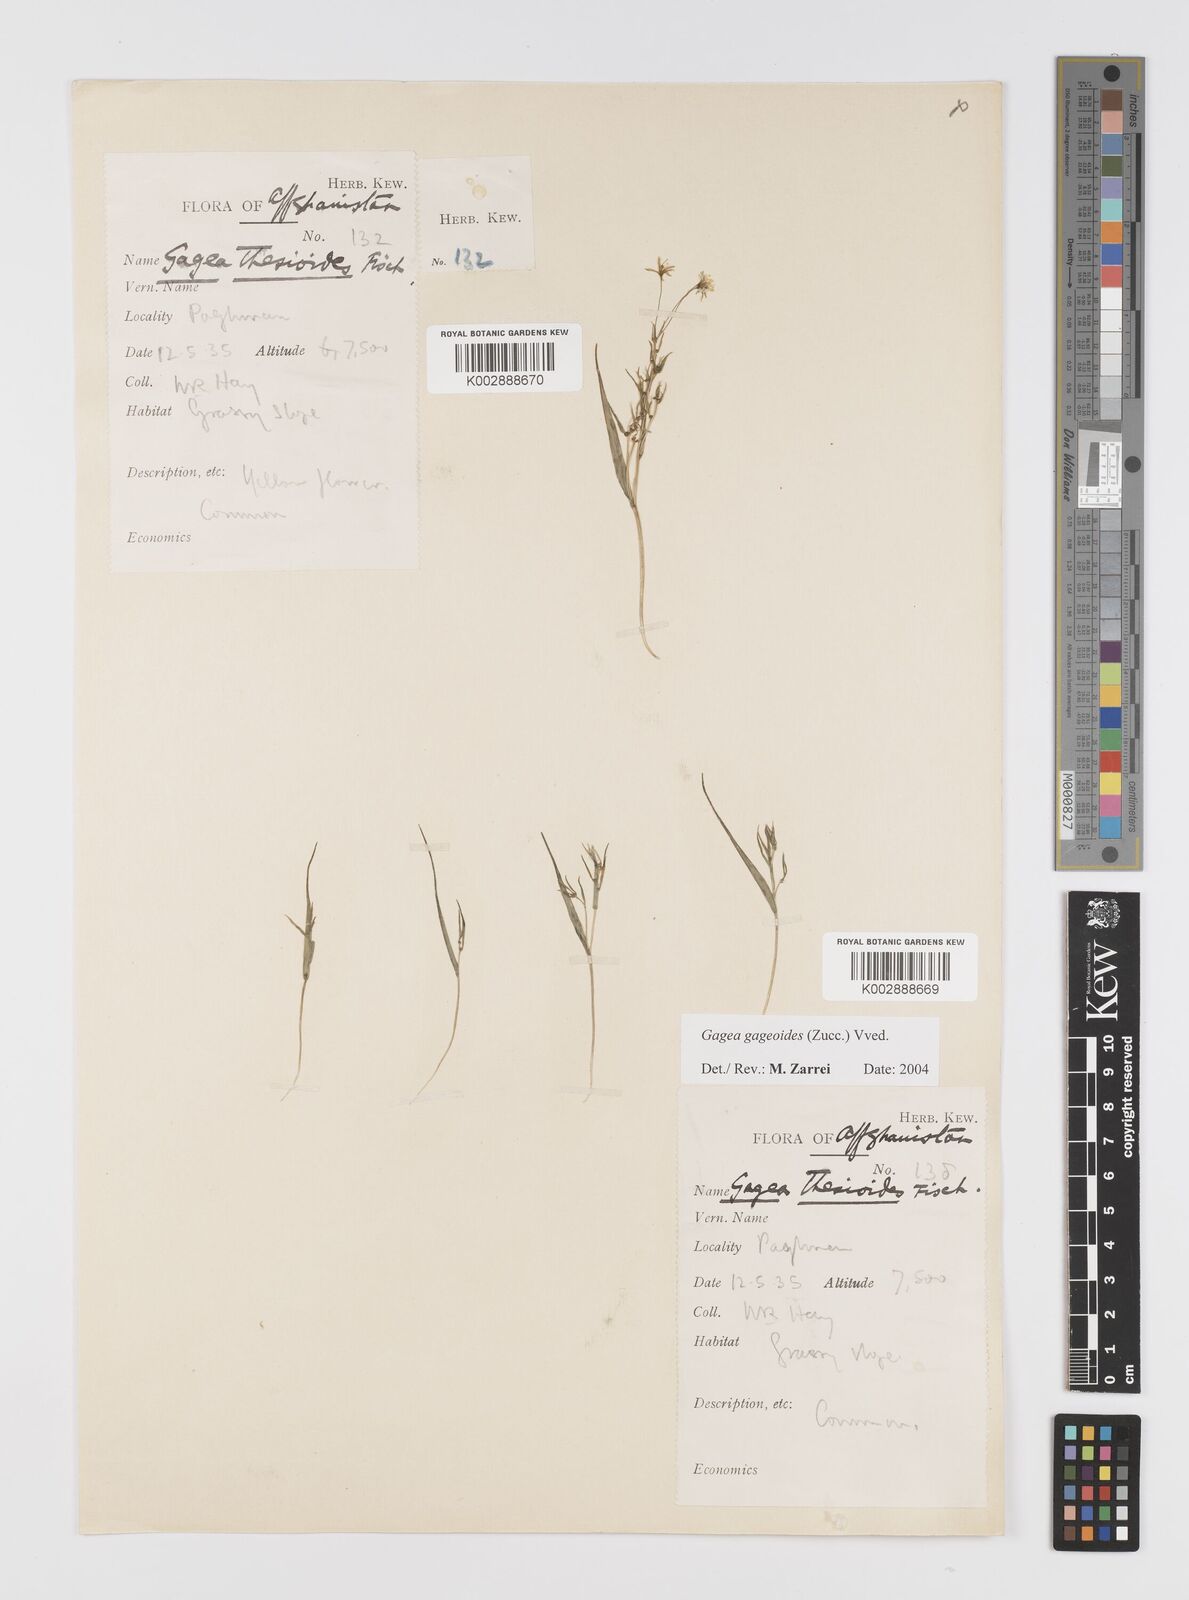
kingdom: Plantae
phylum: Tracheophyta
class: Liliopsida
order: Liliales
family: Liliaceae
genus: Gagea
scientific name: Gagea gageoides
